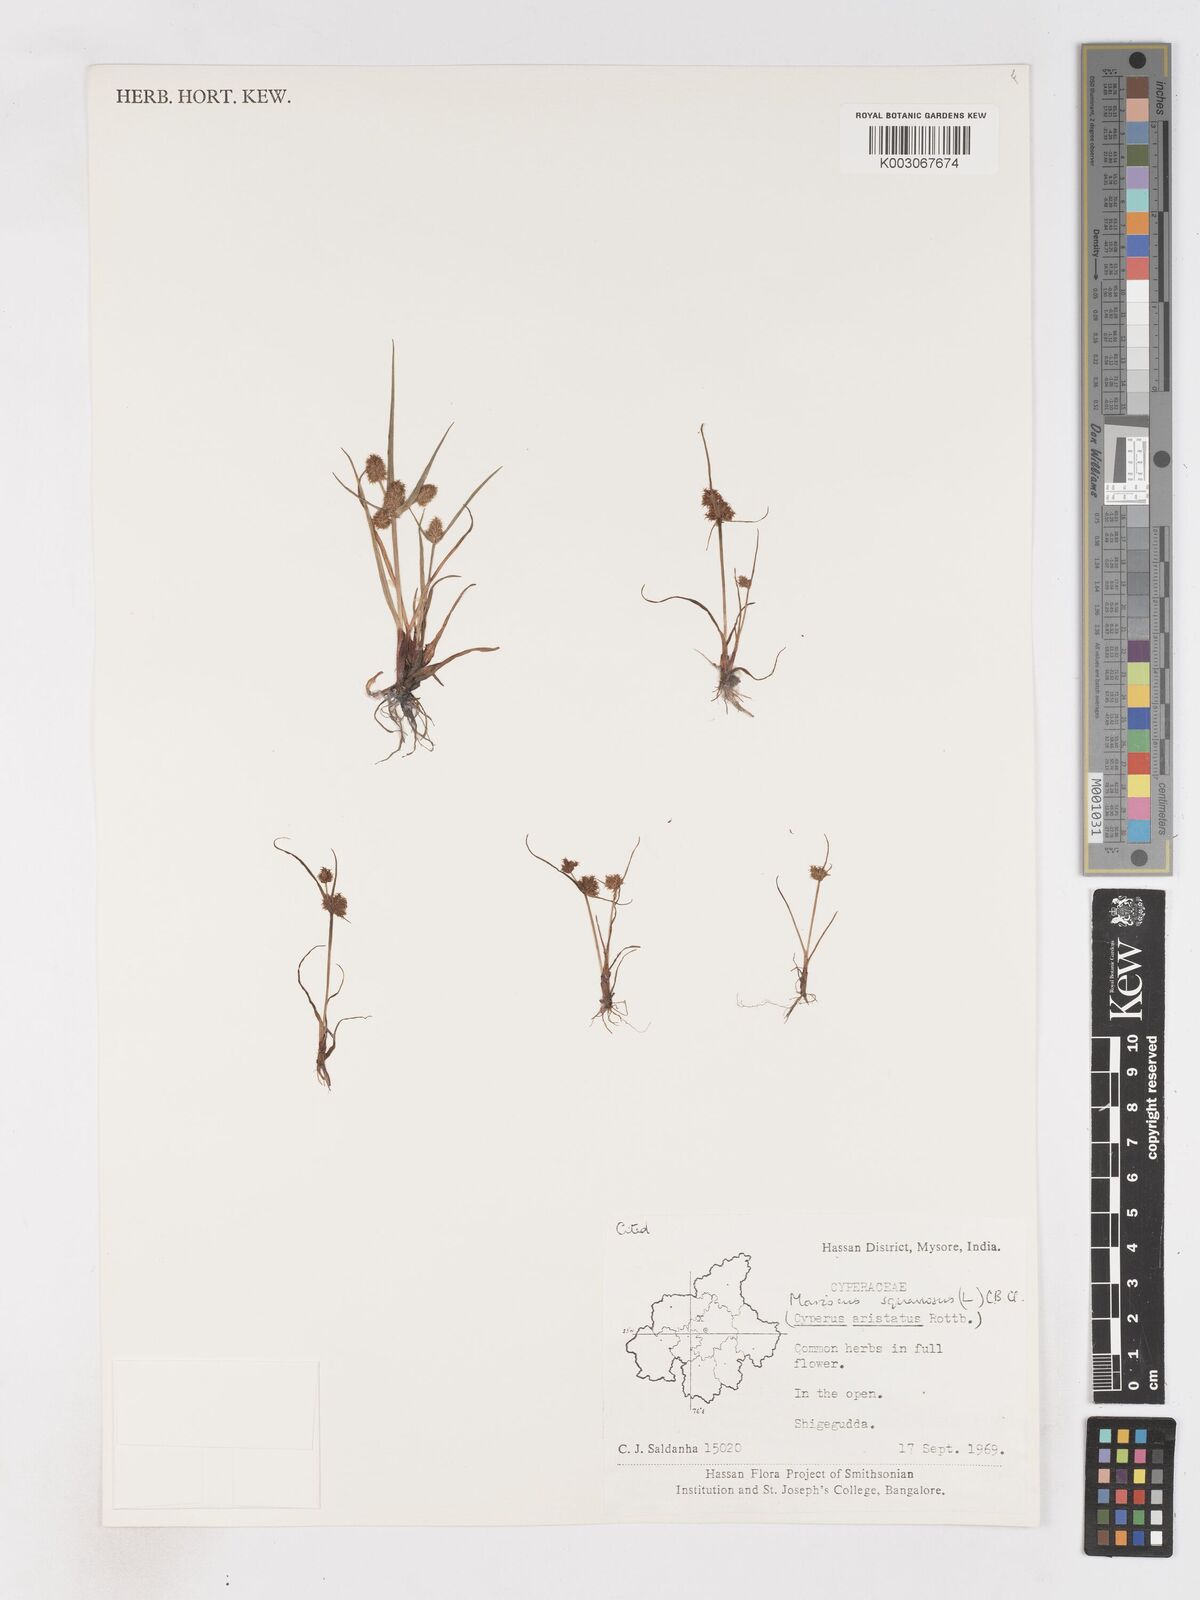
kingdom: Plantae
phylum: Tracheophyta
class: Liliopsida
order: Poales
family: Cyperaceae
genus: Cyperus
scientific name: Cyperus squarrosus
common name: Awned cyperus
